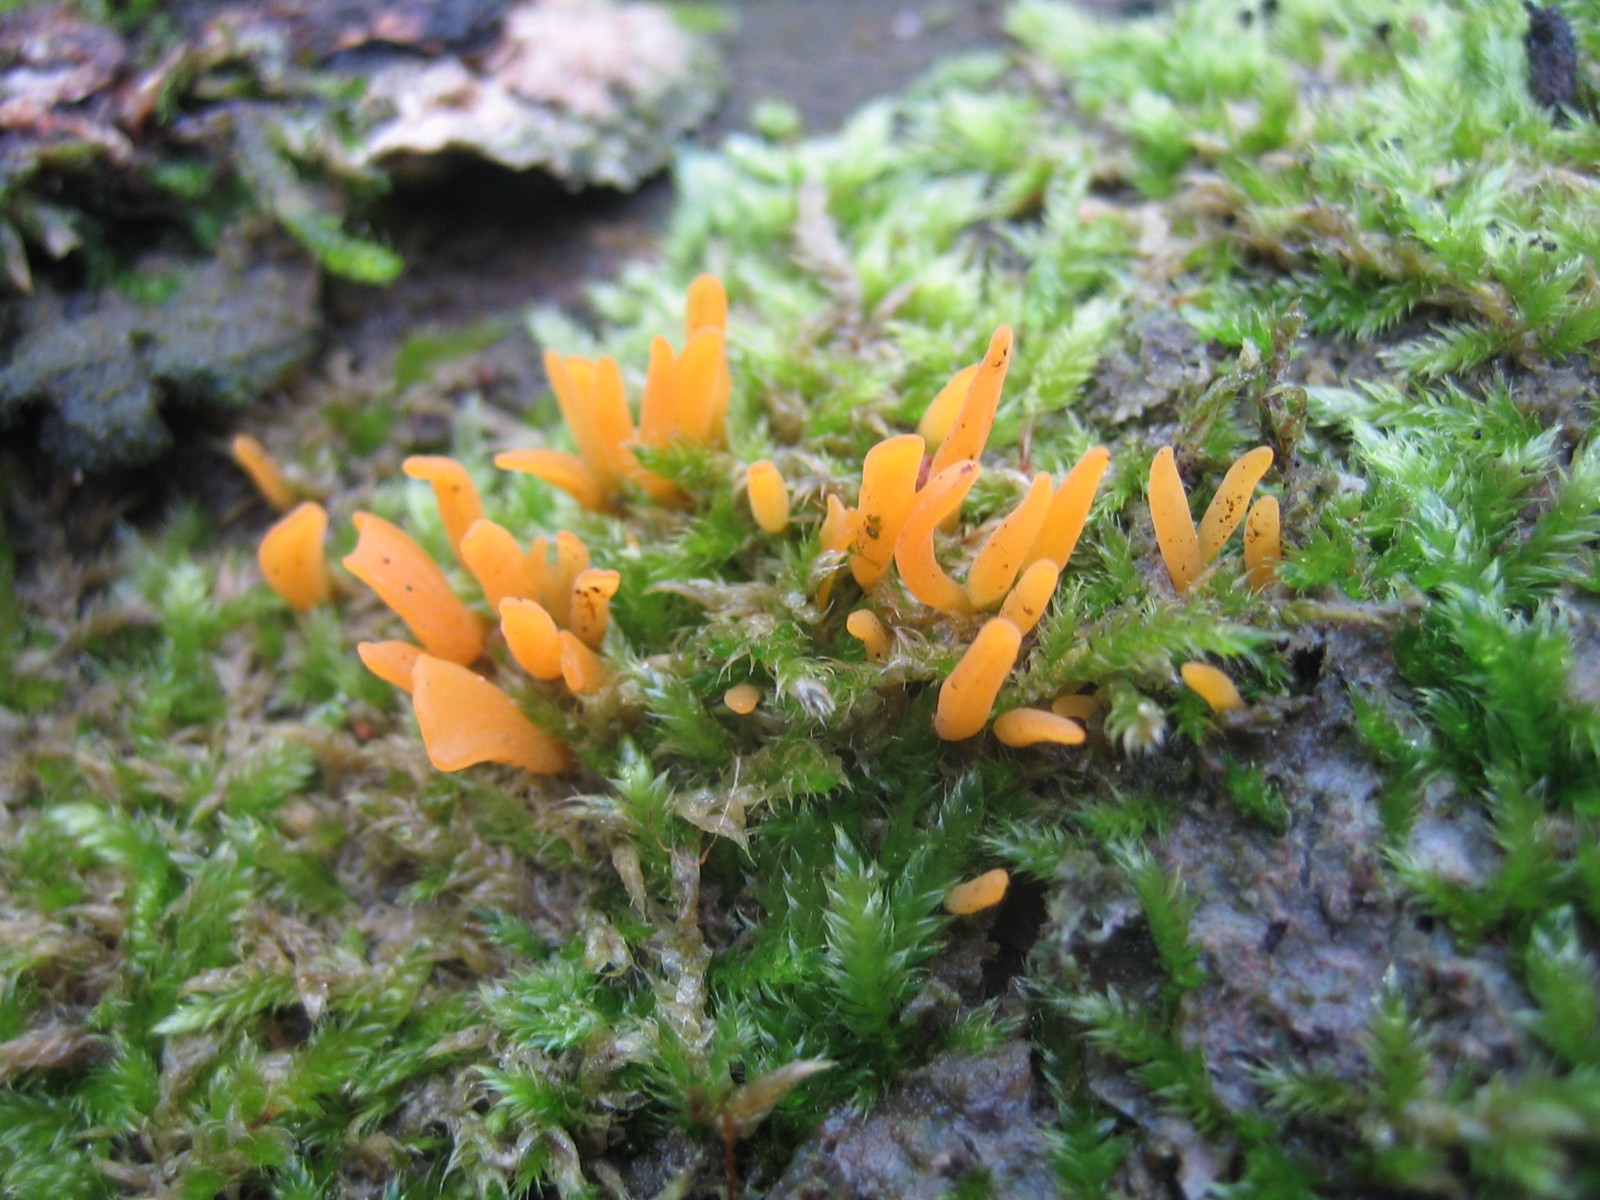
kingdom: Fungi
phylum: Basidiomycota
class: Dacrymycetes
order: Dacrymycetales
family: Dacrymycetaceae
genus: Calocera
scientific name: Calocera cornea
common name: liden guldgaffel
